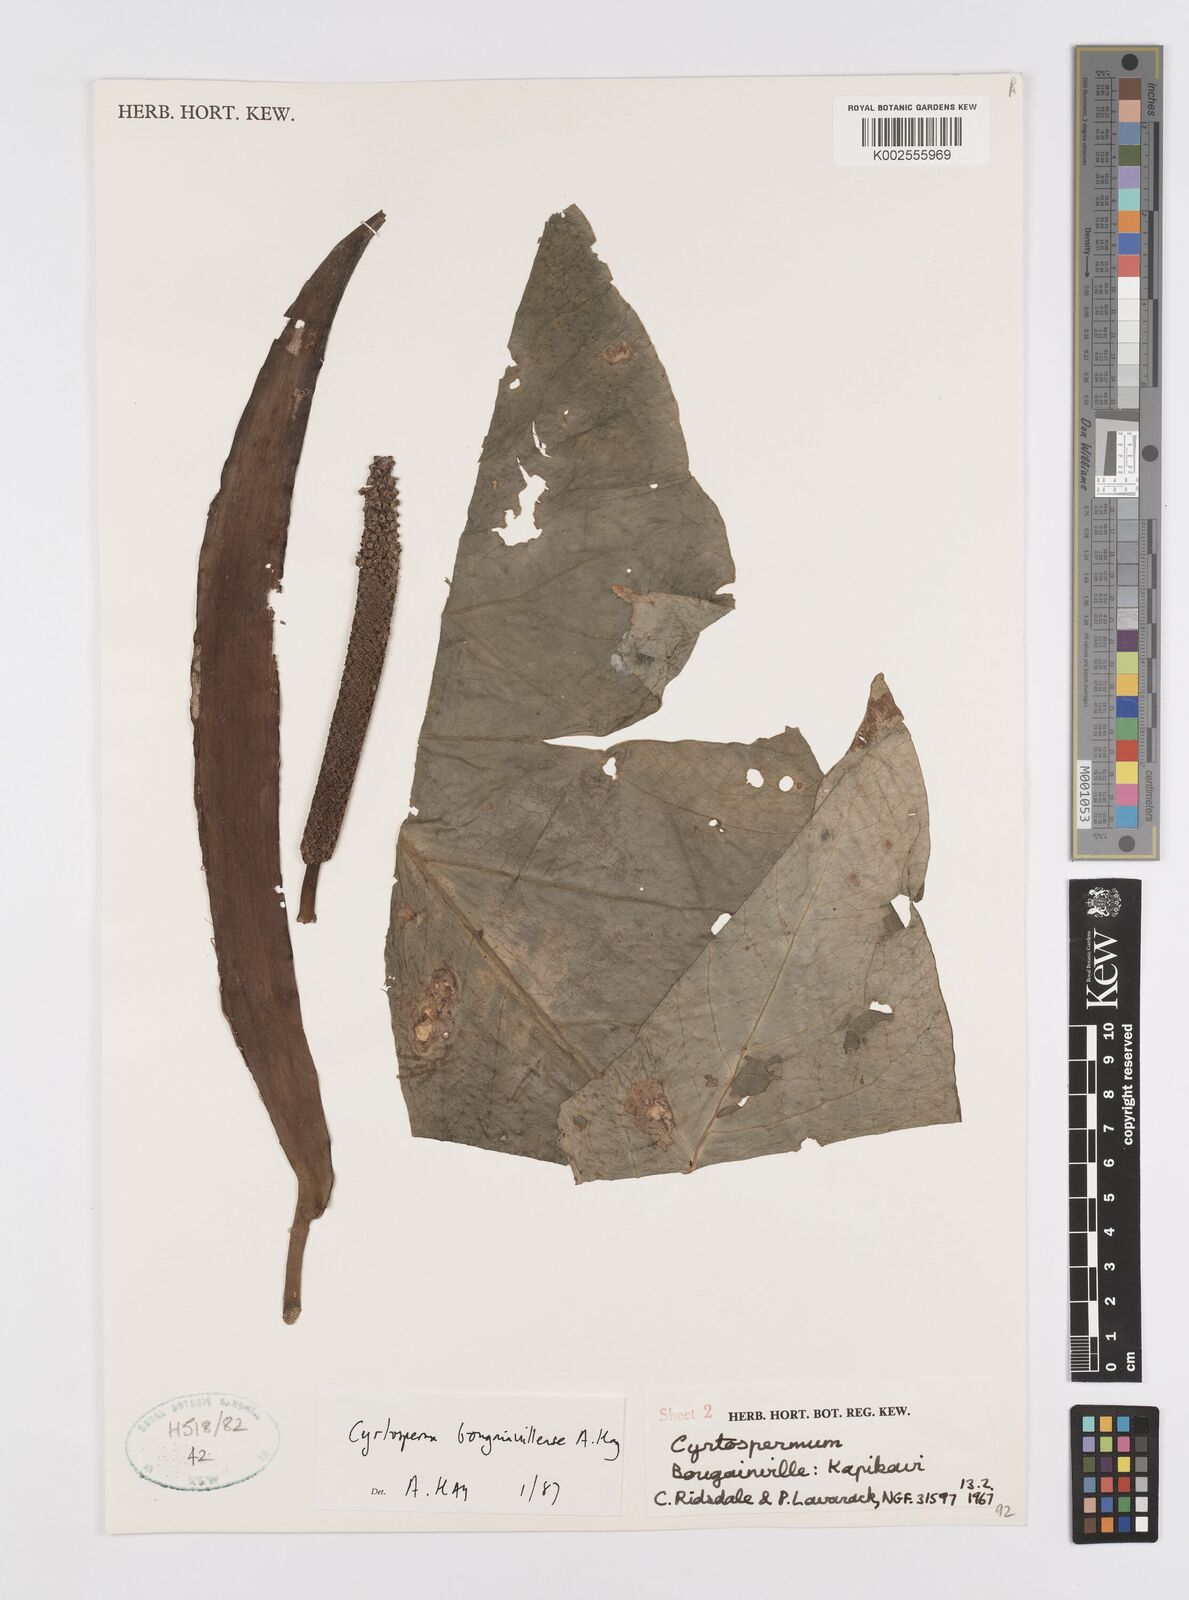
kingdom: Plantae
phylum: Tracheophyta
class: Liliopsida
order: Alismatales
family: Araceae
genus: Cyrtosperma
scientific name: Cyrtosperma bougainvillense
